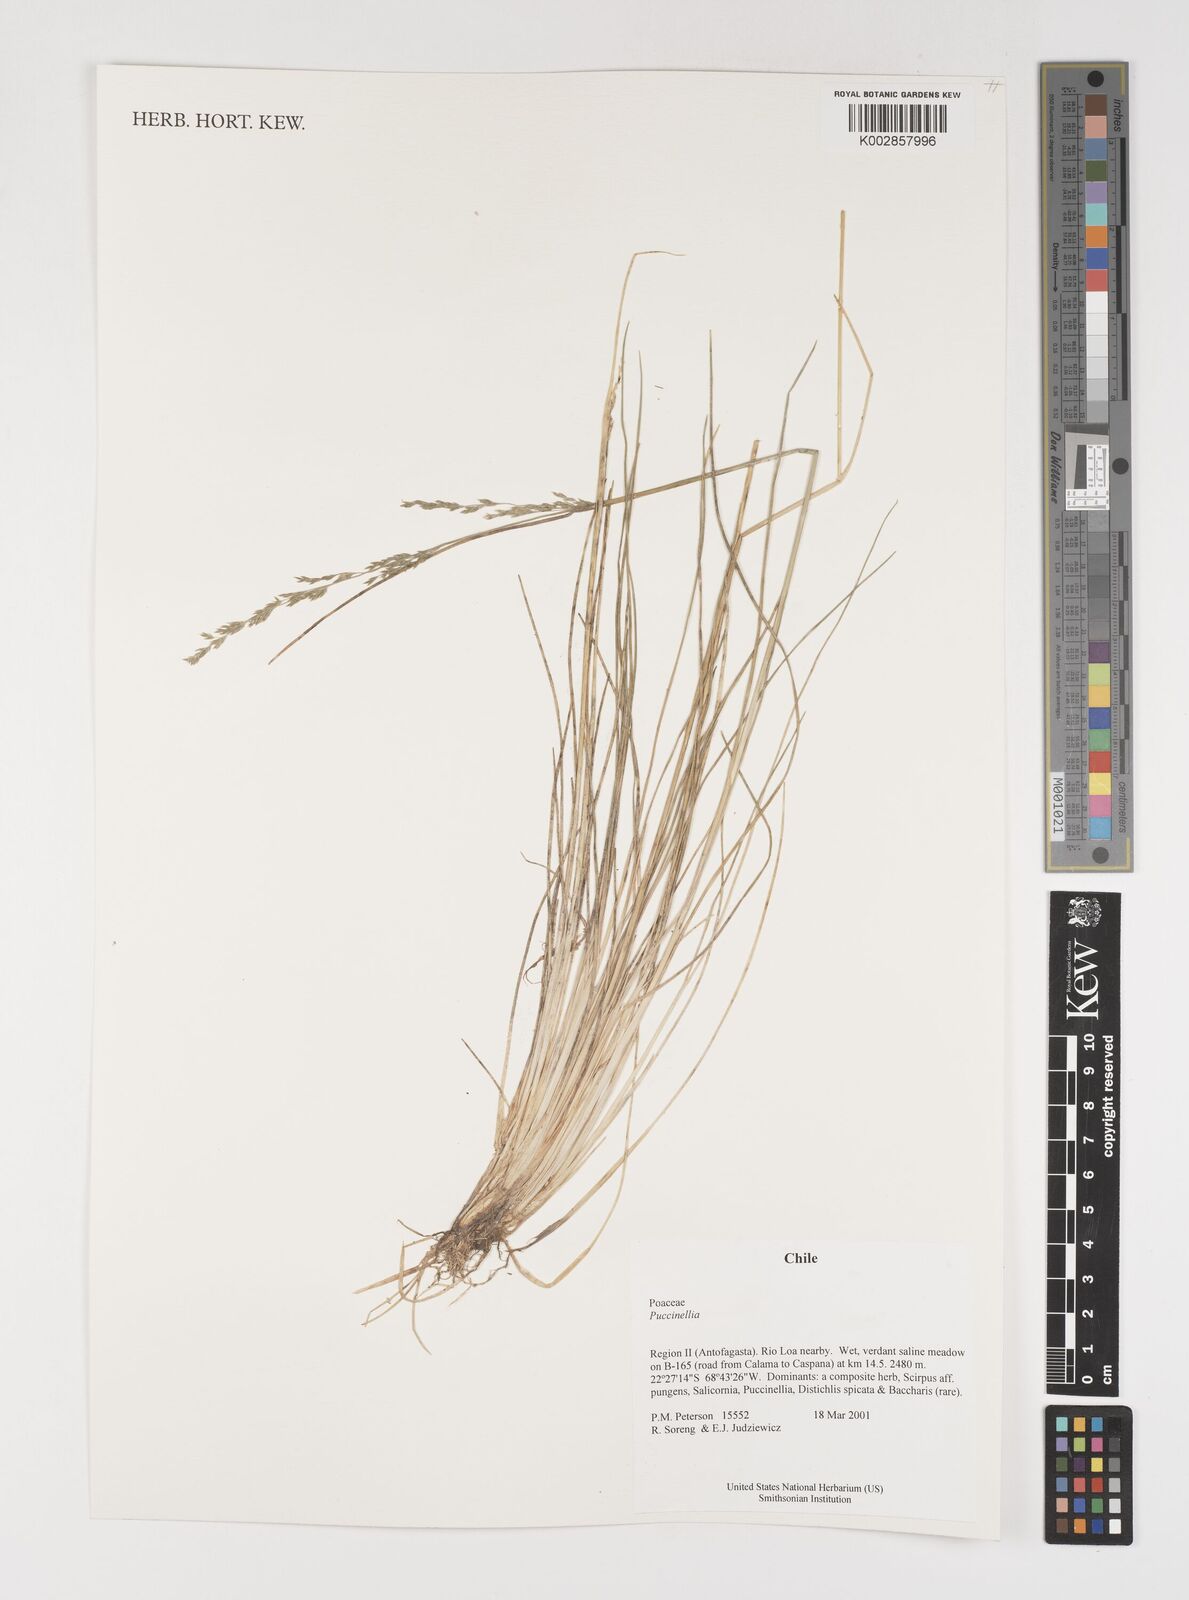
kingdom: Plantae
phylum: Tracheophyta
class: Liliopsida
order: Poales
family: Poaceae
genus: Puccinellia
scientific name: Puccinellia
